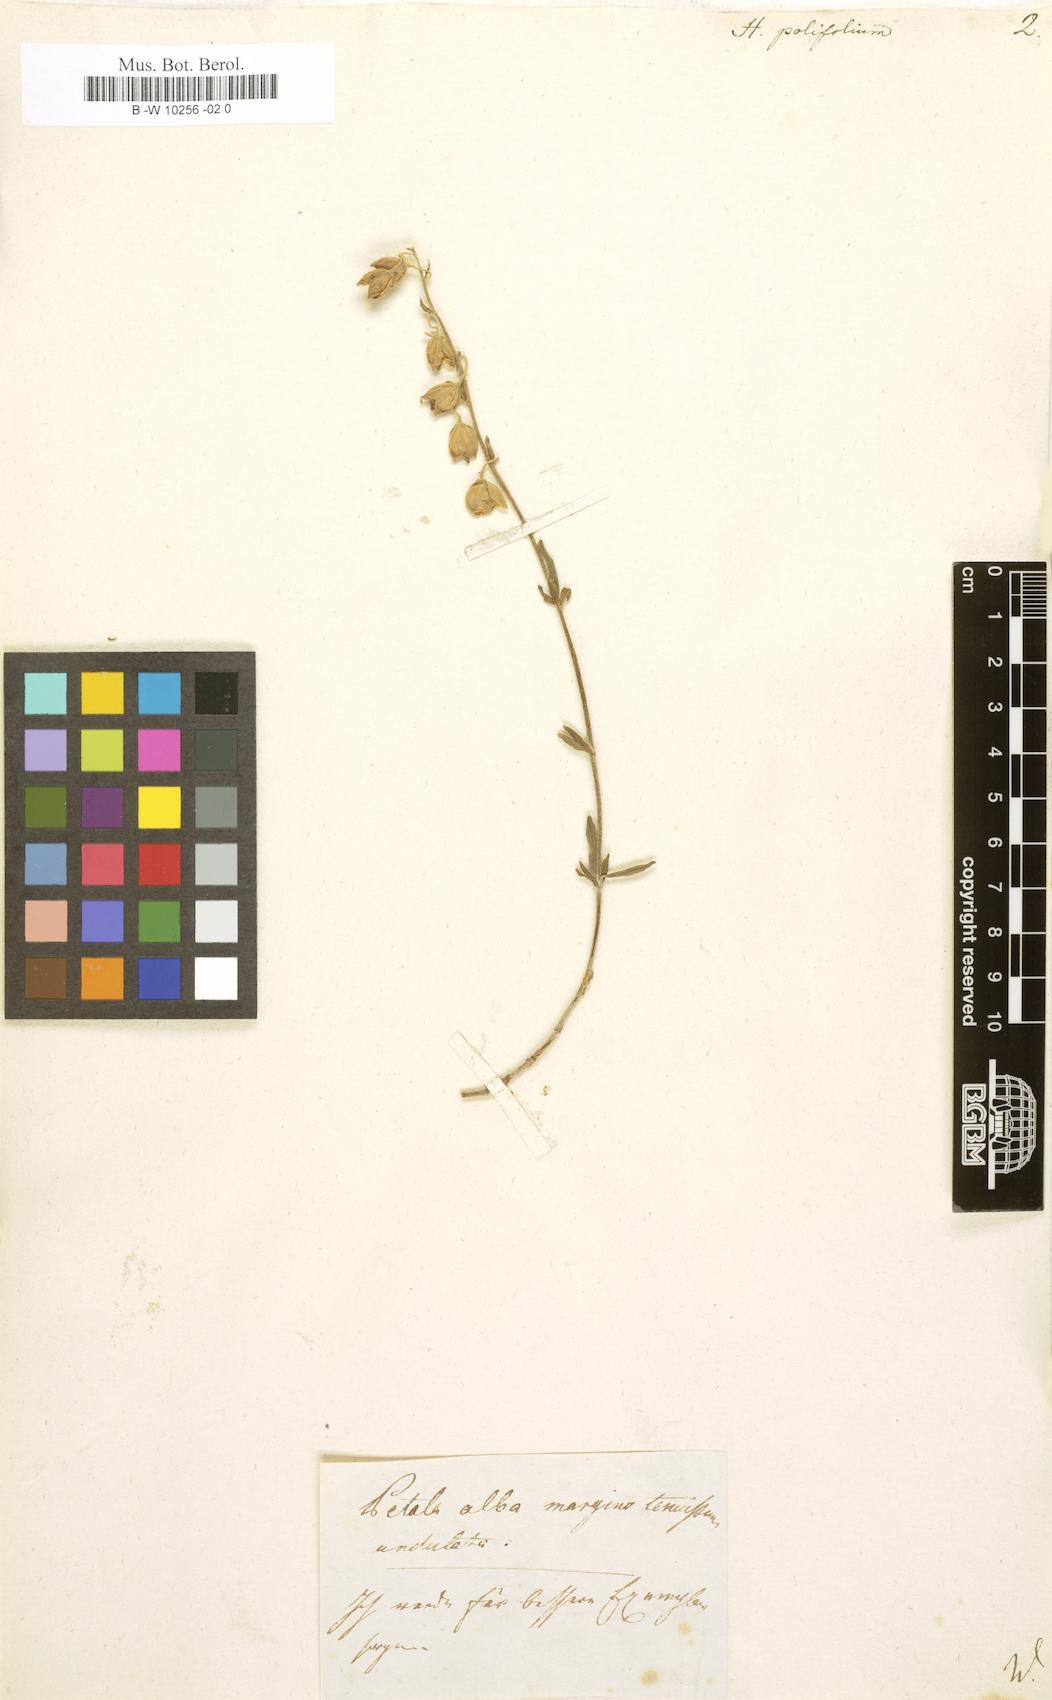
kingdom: Plantae
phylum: Tracheophyta
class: Magnoliopsida
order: Malvales
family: Cistaceae
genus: Helianthemum
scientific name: Helianthemum polifolium
